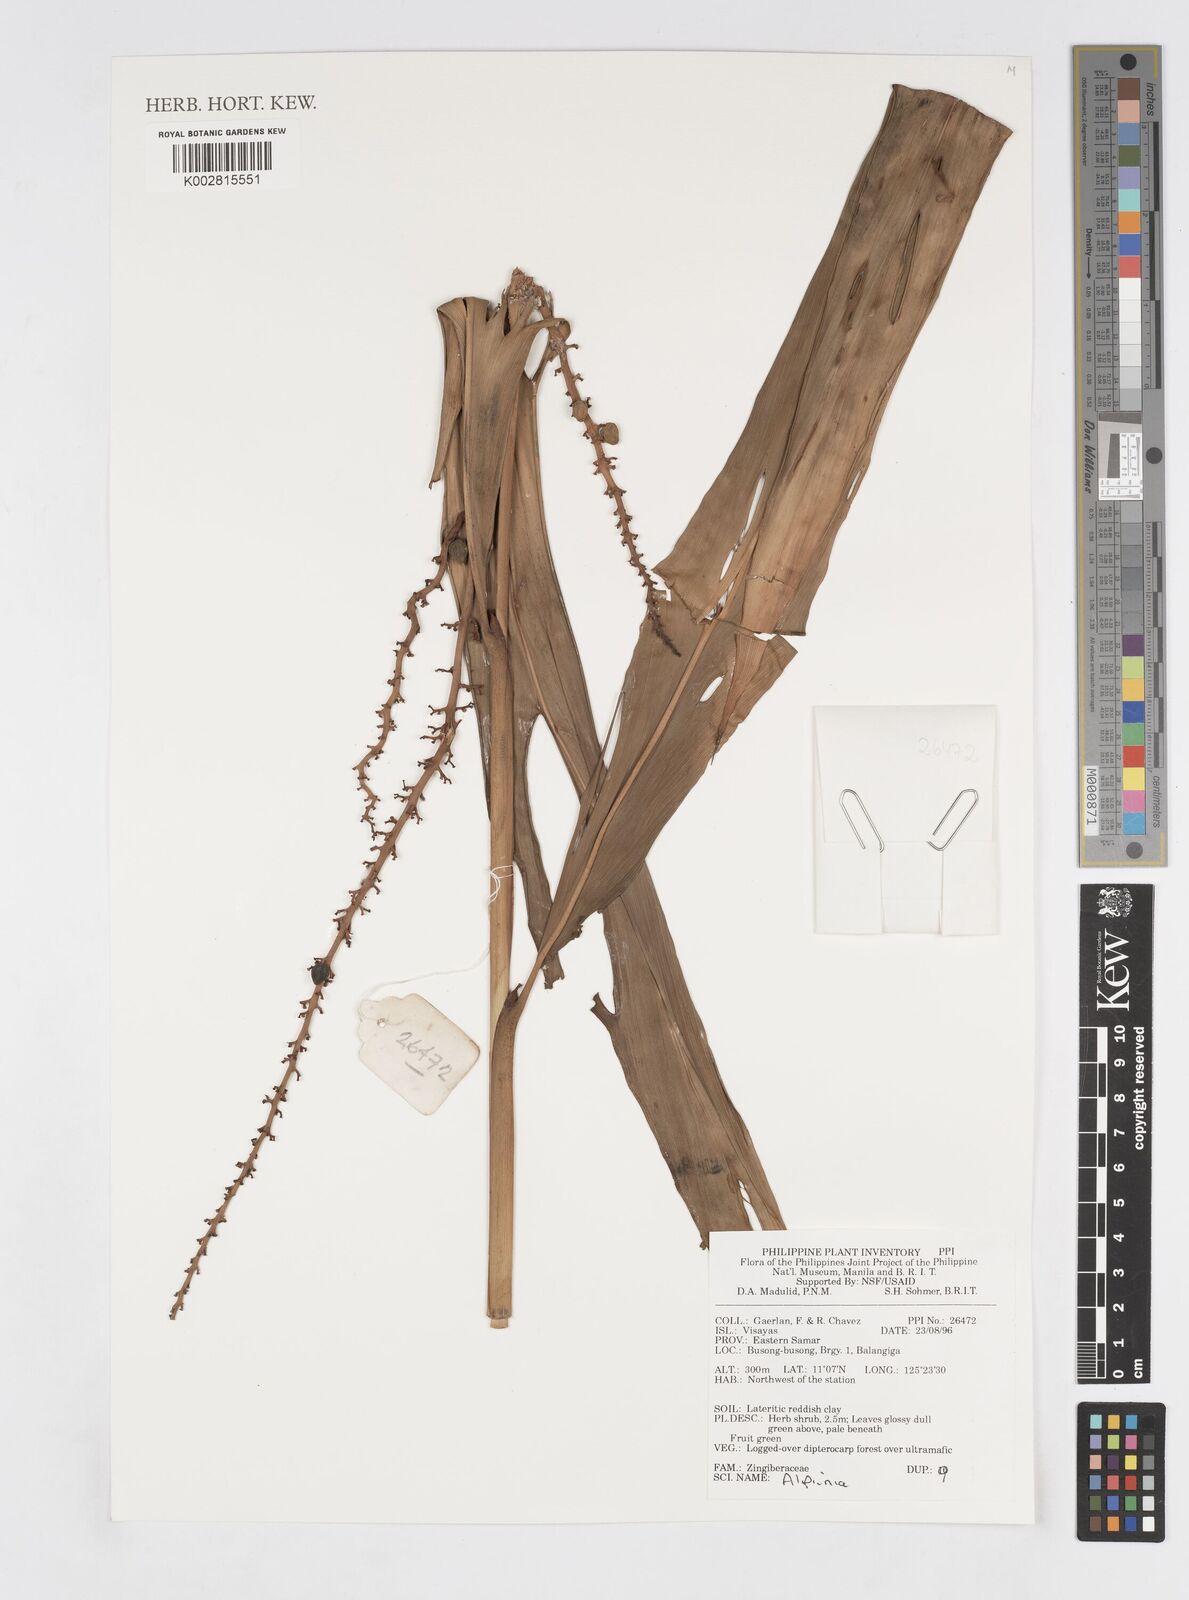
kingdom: Plantae
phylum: Tracheophyta
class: Liliopsida
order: Zingiberales
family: Zingiberaceae
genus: Alpinia
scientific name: Alpinia
